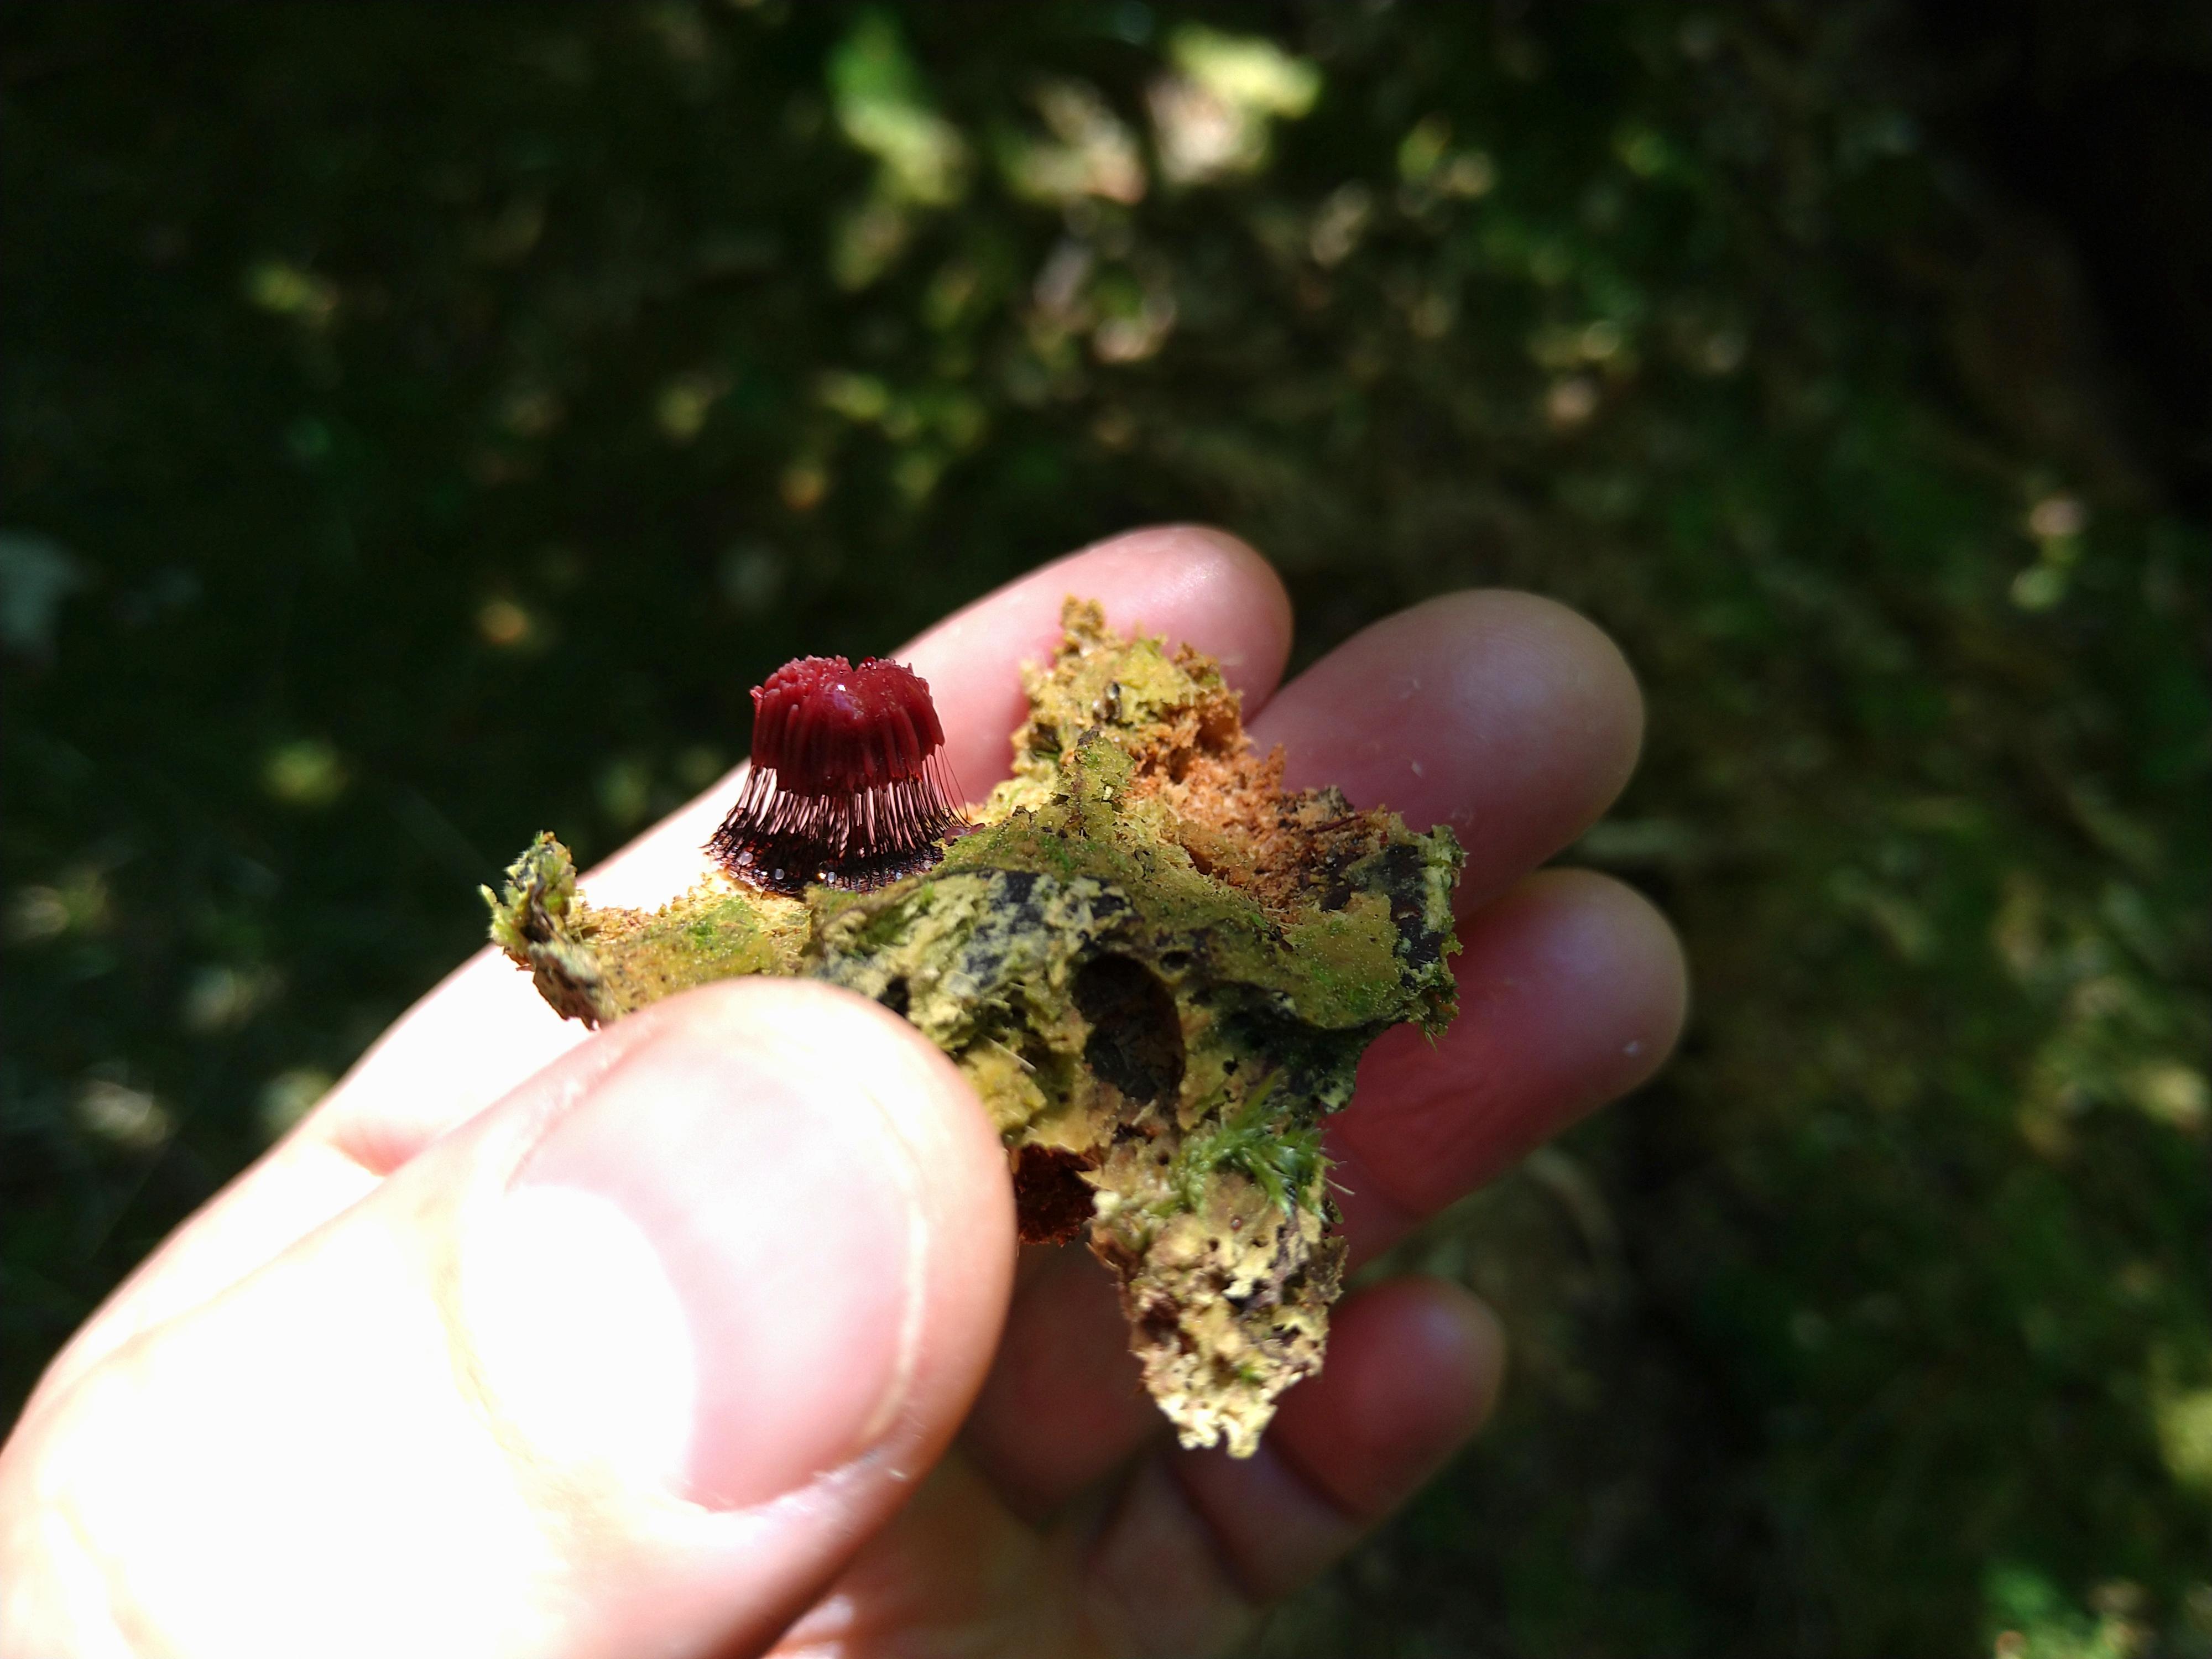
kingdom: Protozoa
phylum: Mycetozoa
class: Myxomycetes
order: Stemonitidales
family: Stemonitidaceae
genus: Stemonitis
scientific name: Stemonitis
